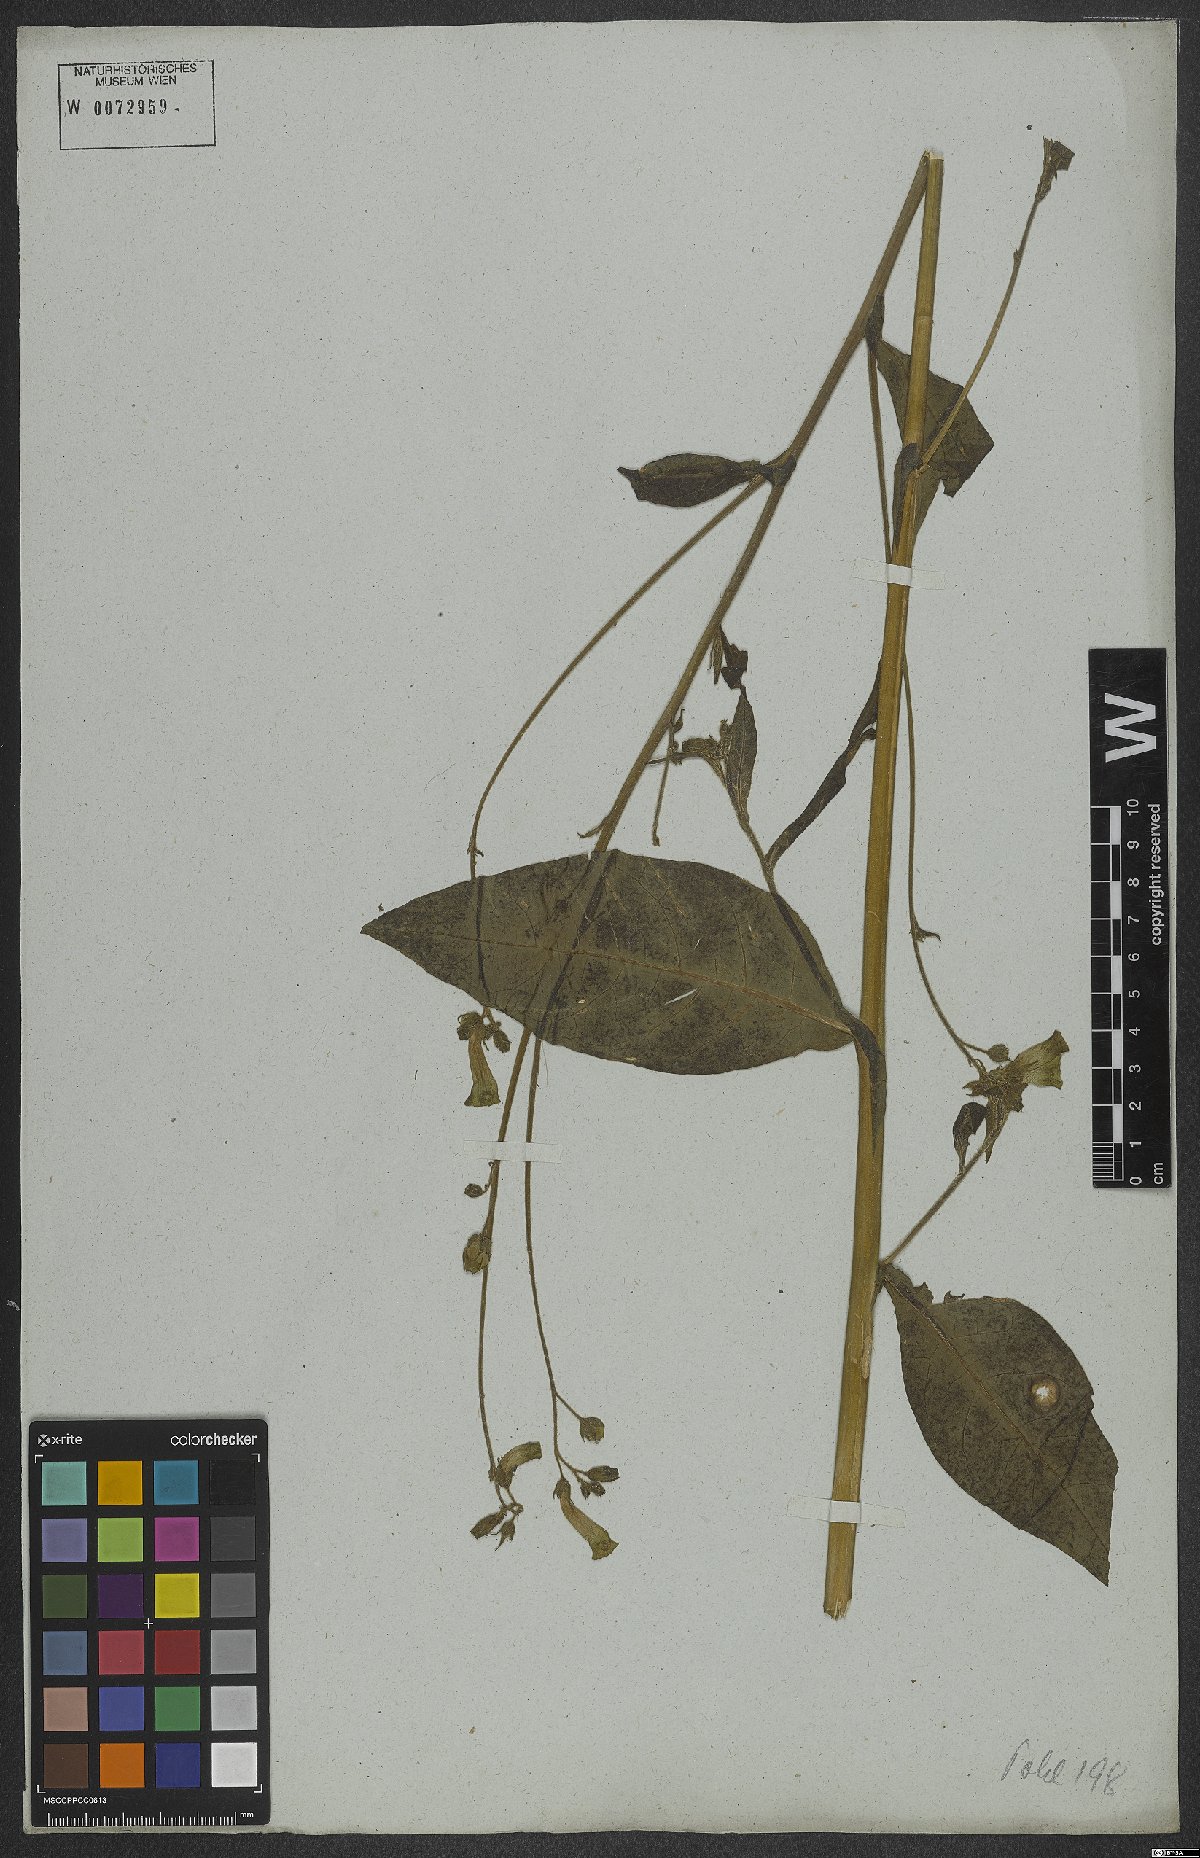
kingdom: Plantae
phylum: Tracheophyta
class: Magnoliopsida
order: Solanales
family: Solanaceae
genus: Nicotiana
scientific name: Nicotiana langsdorffii
